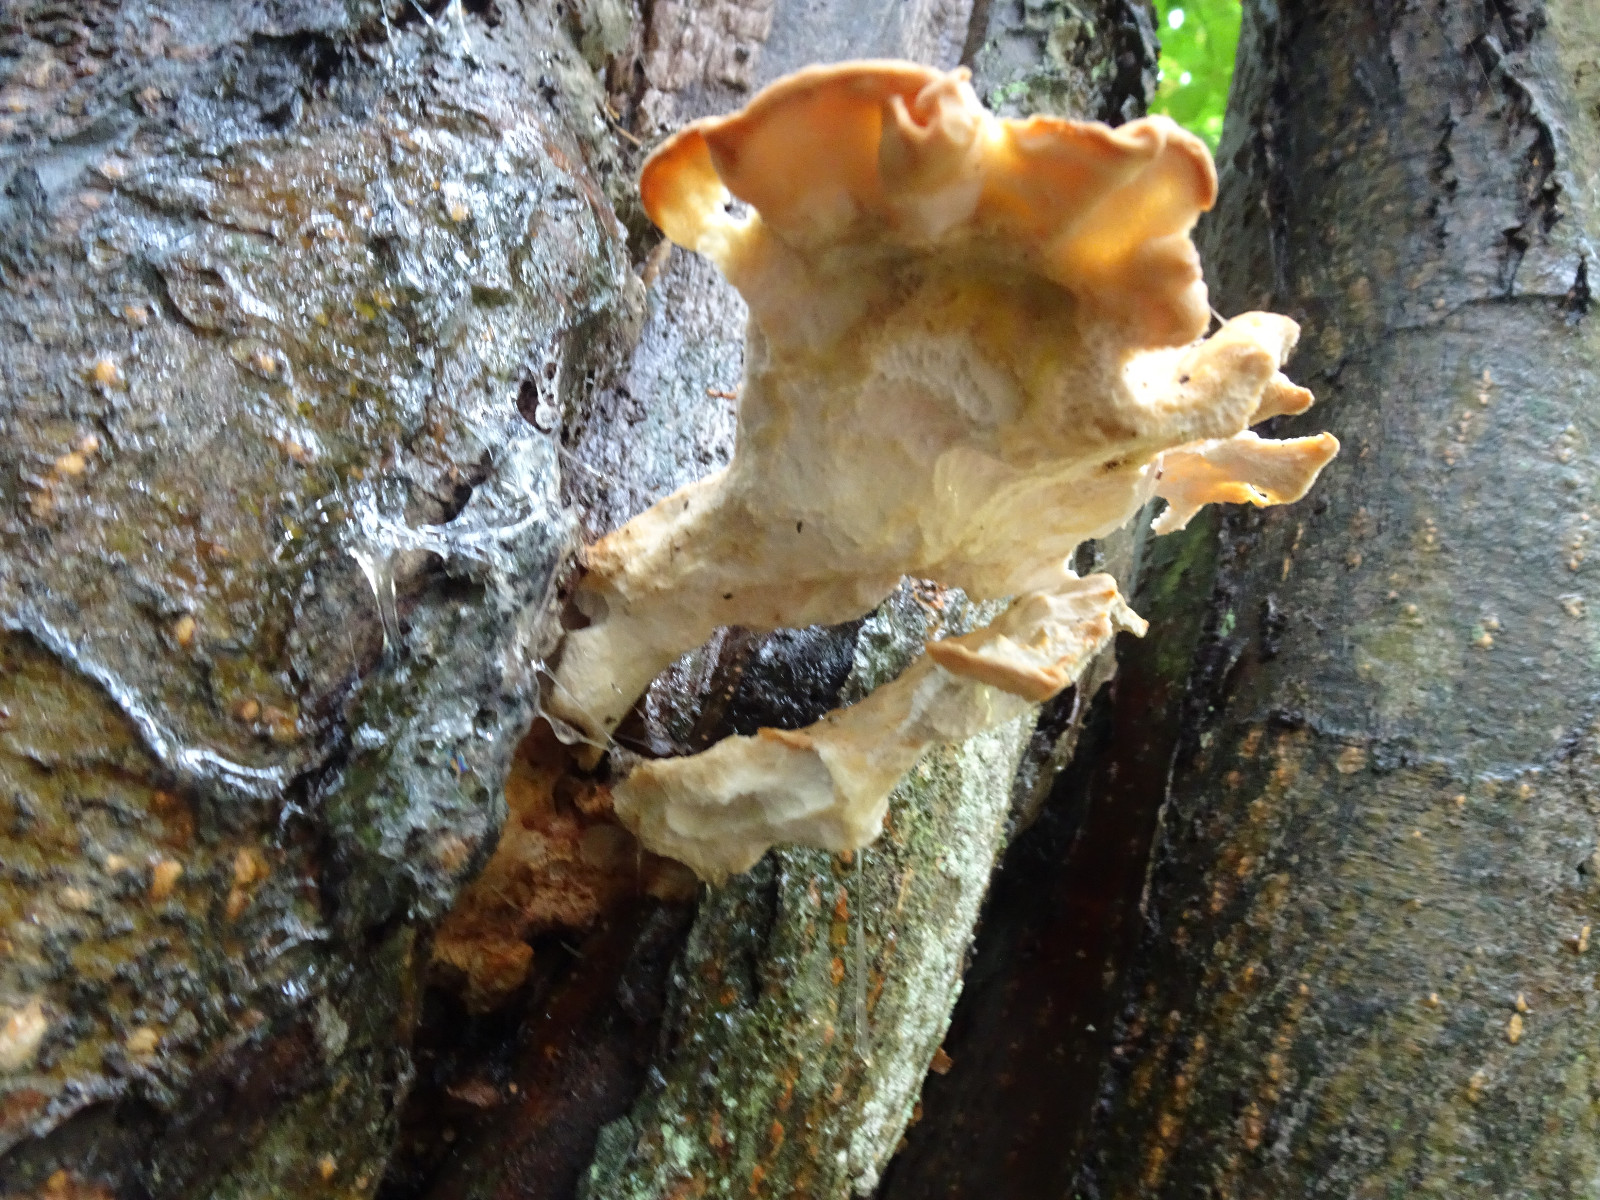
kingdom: Fungi
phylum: Basidiomycota
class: Agaricomycetes
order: Polyporales
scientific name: Polyporales
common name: poresvampordenen
